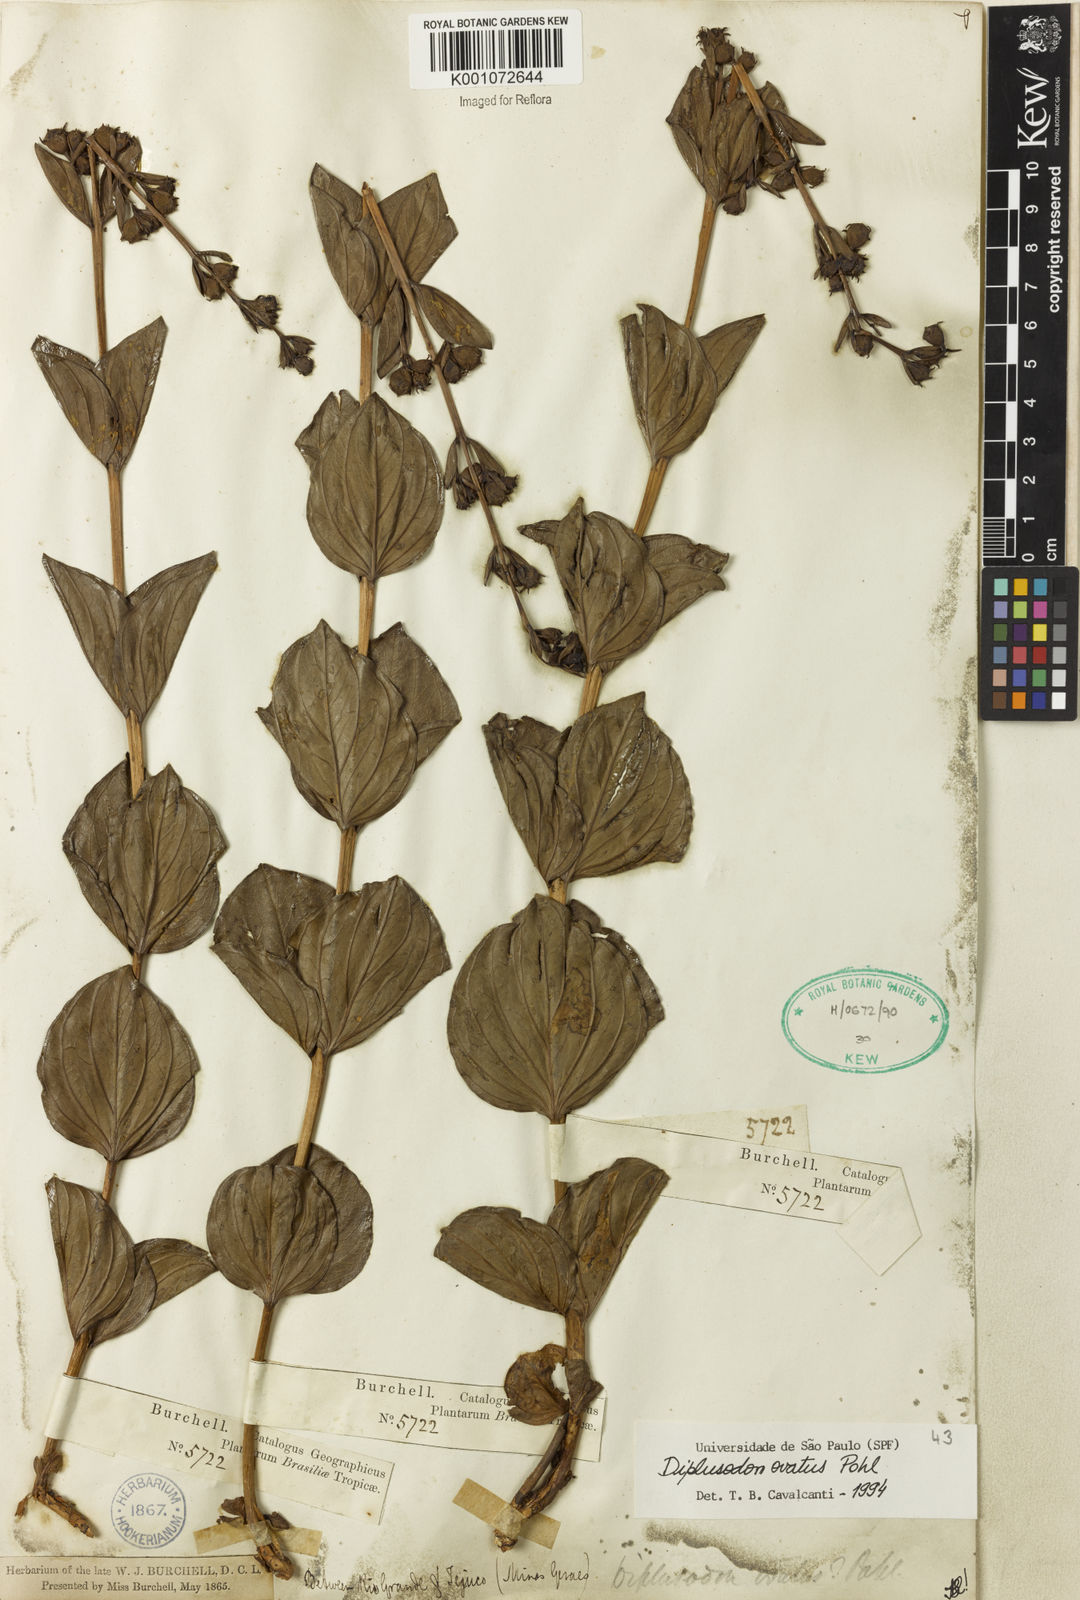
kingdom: Plantae
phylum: Tracheophyta
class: Magnoliopsida
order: Myrtales
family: Lythraceae
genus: Diplusodon
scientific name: Diplusodon ovatus
